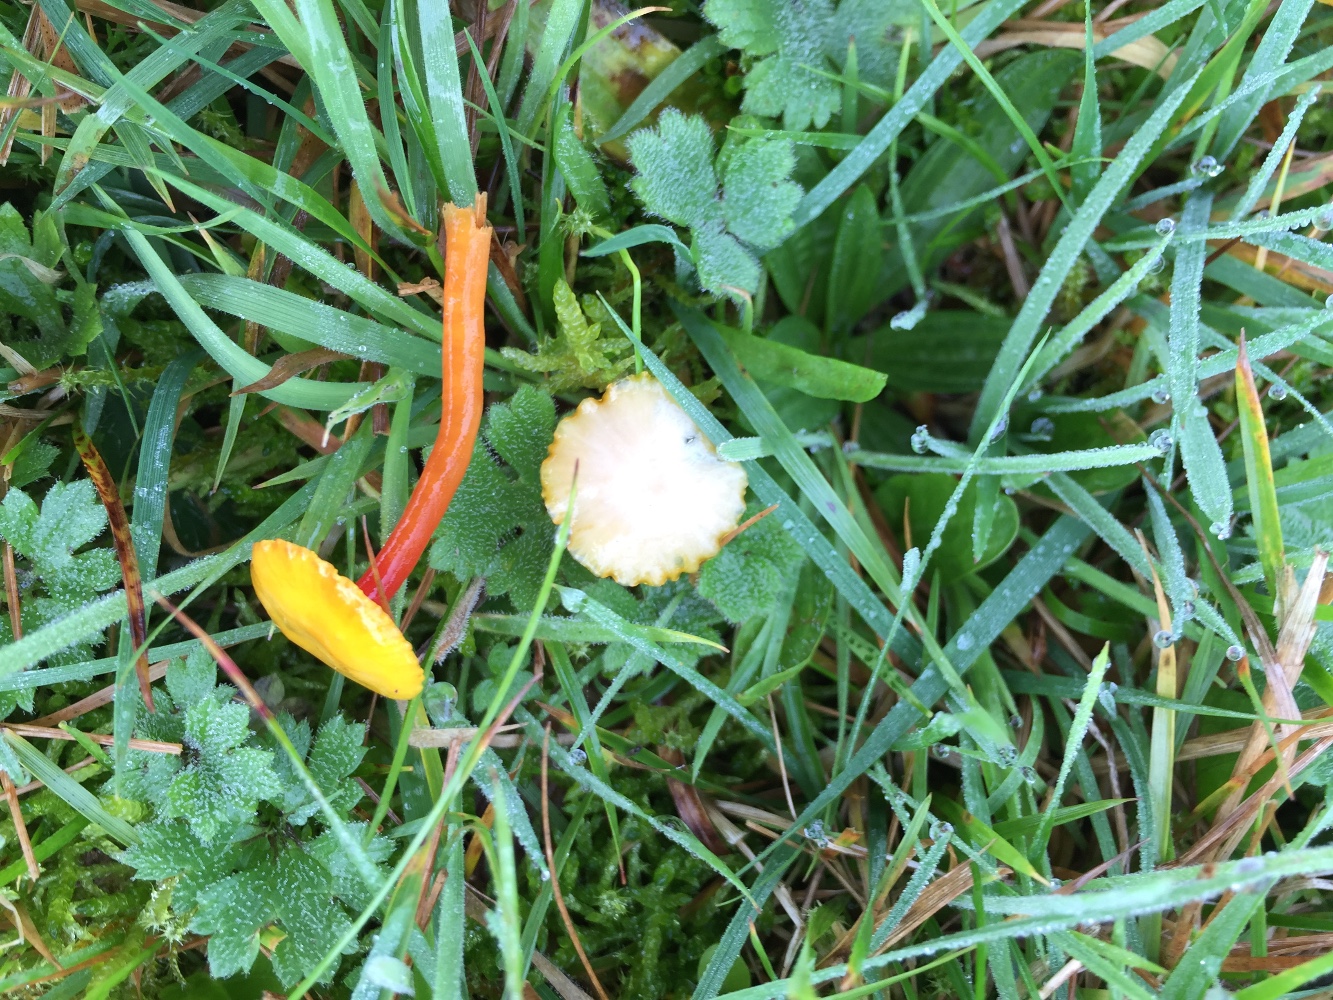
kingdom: Fungi
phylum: Basidiomycota
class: Agaricomycetes
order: Agaricales
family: Hygrophoraceae
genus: Hygrocybe
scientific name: Hygrocybe insipida
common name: liden vokshat
